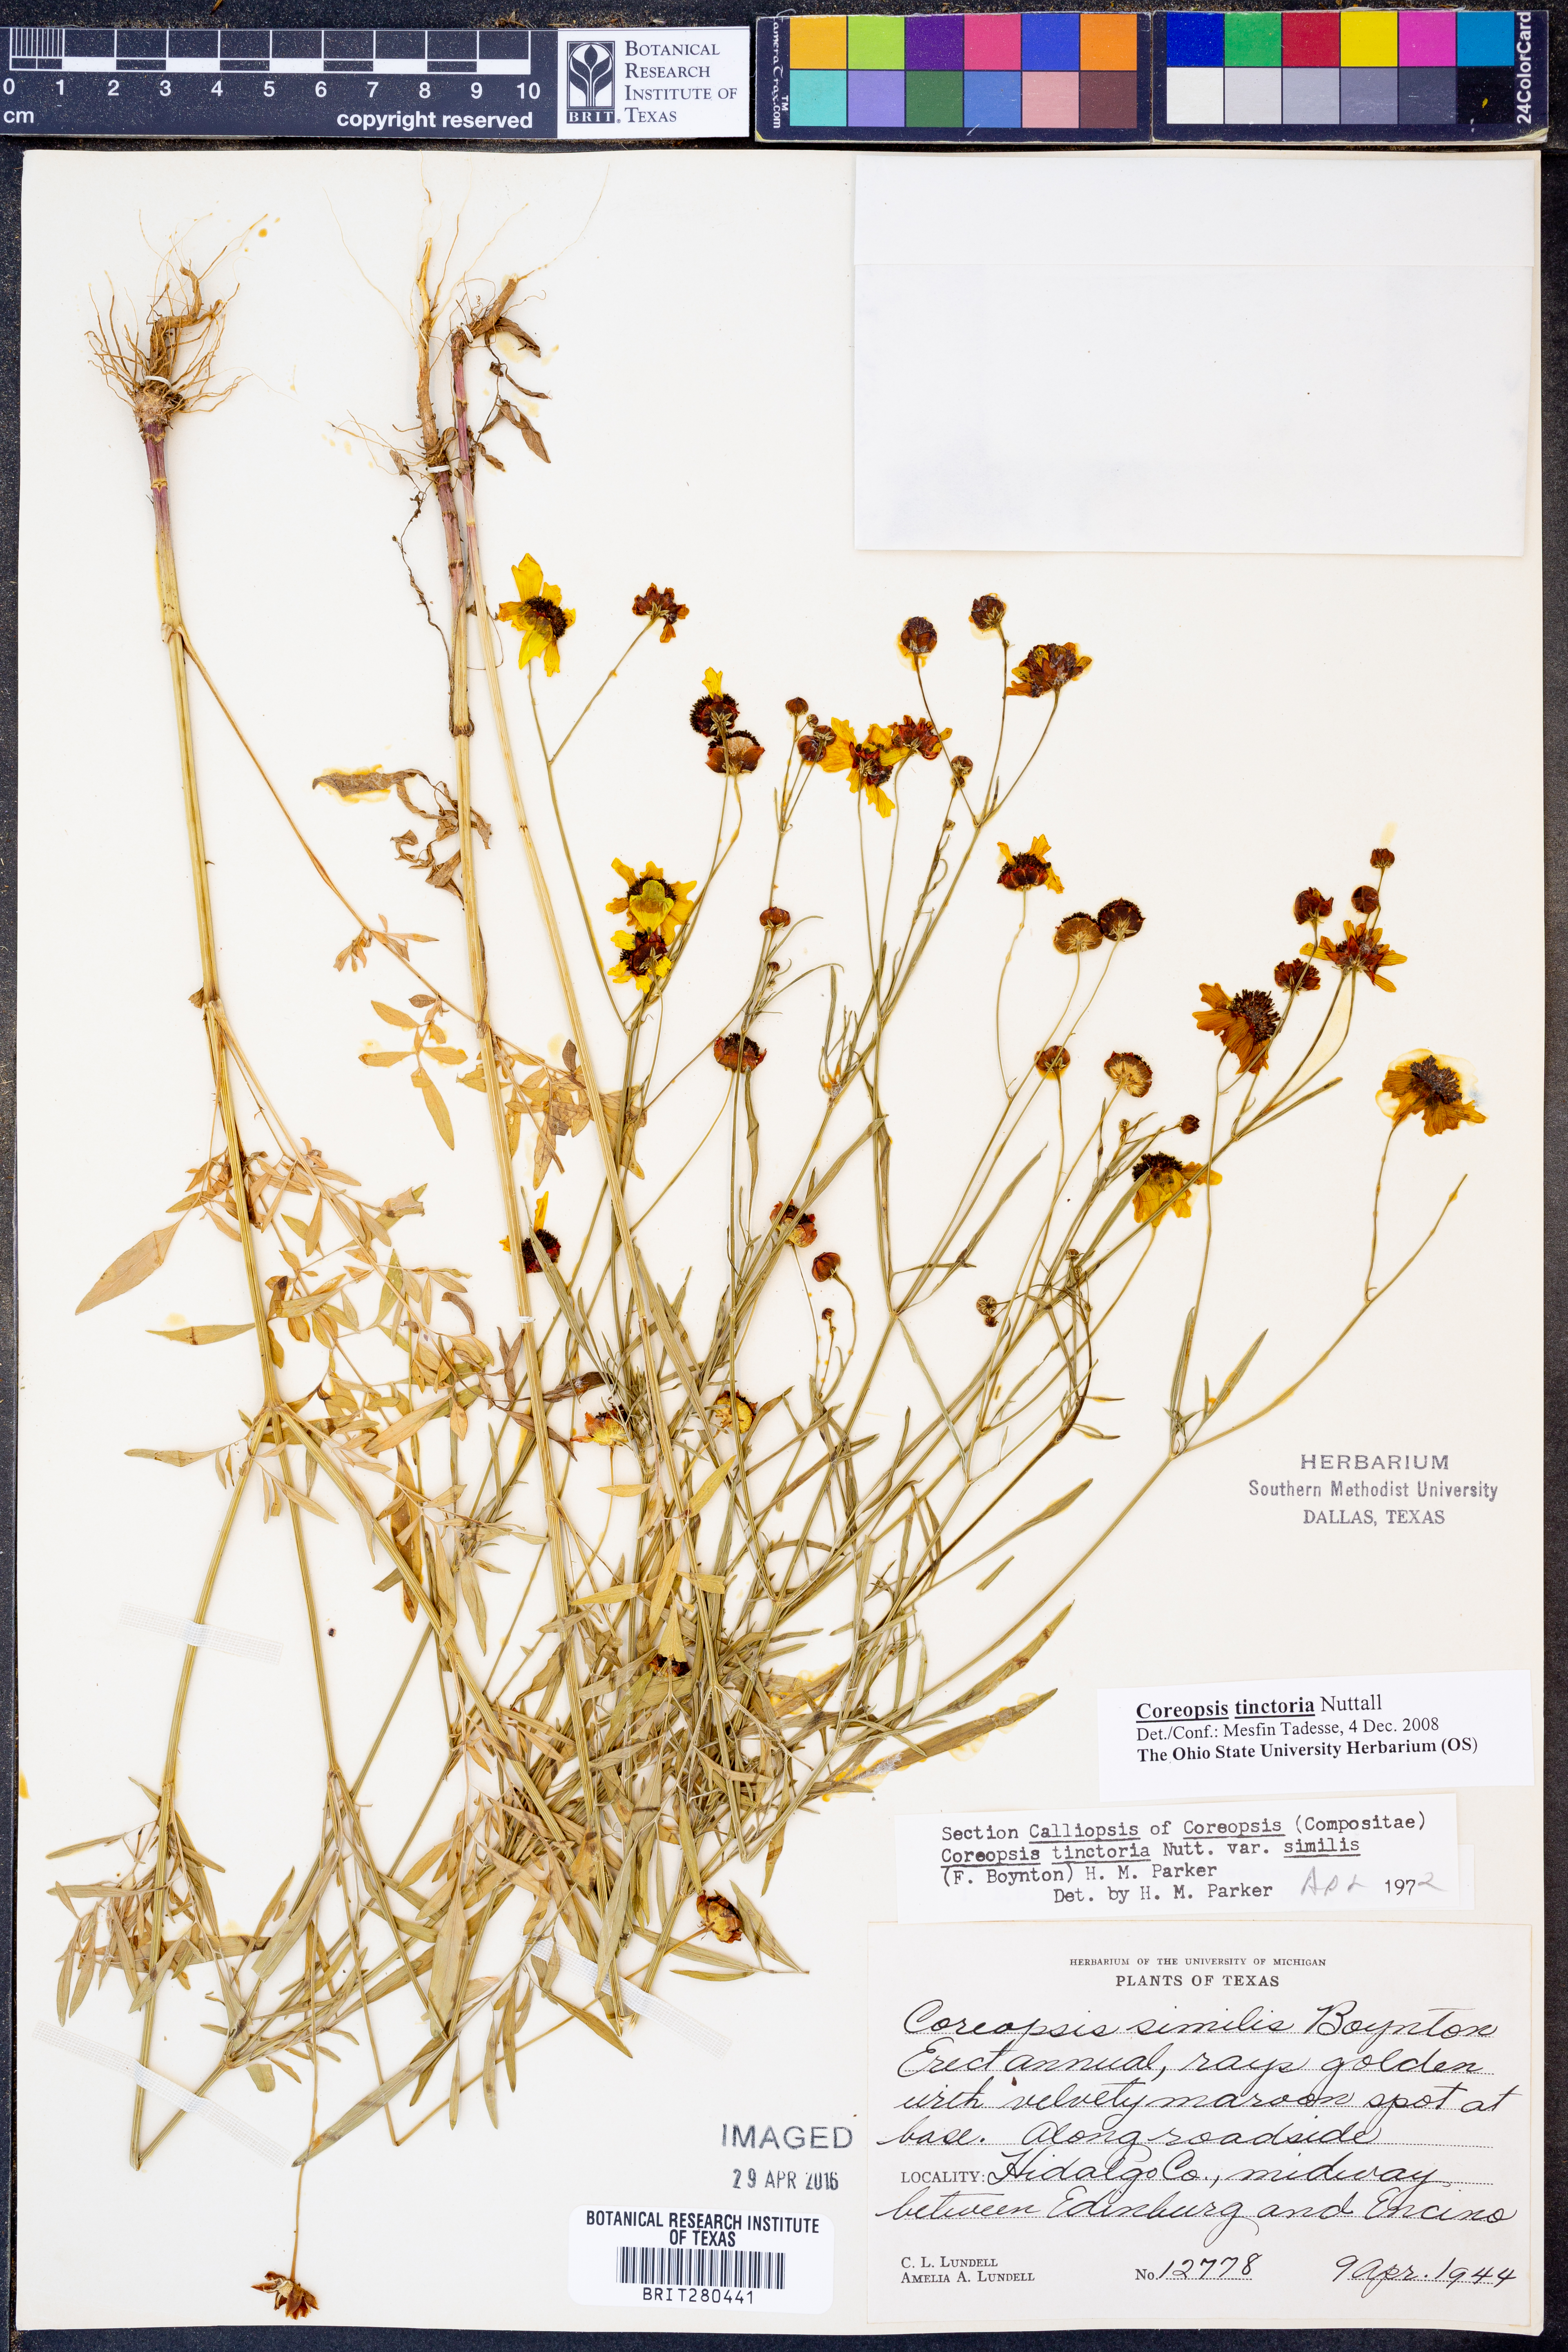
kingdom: Plantae
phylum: Tracheophyta
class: Magnoliopsida
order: Asterales
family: Asteraceae
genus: Coreopsis
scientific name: Coreopsis tinctoria
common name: Garden tickseed
